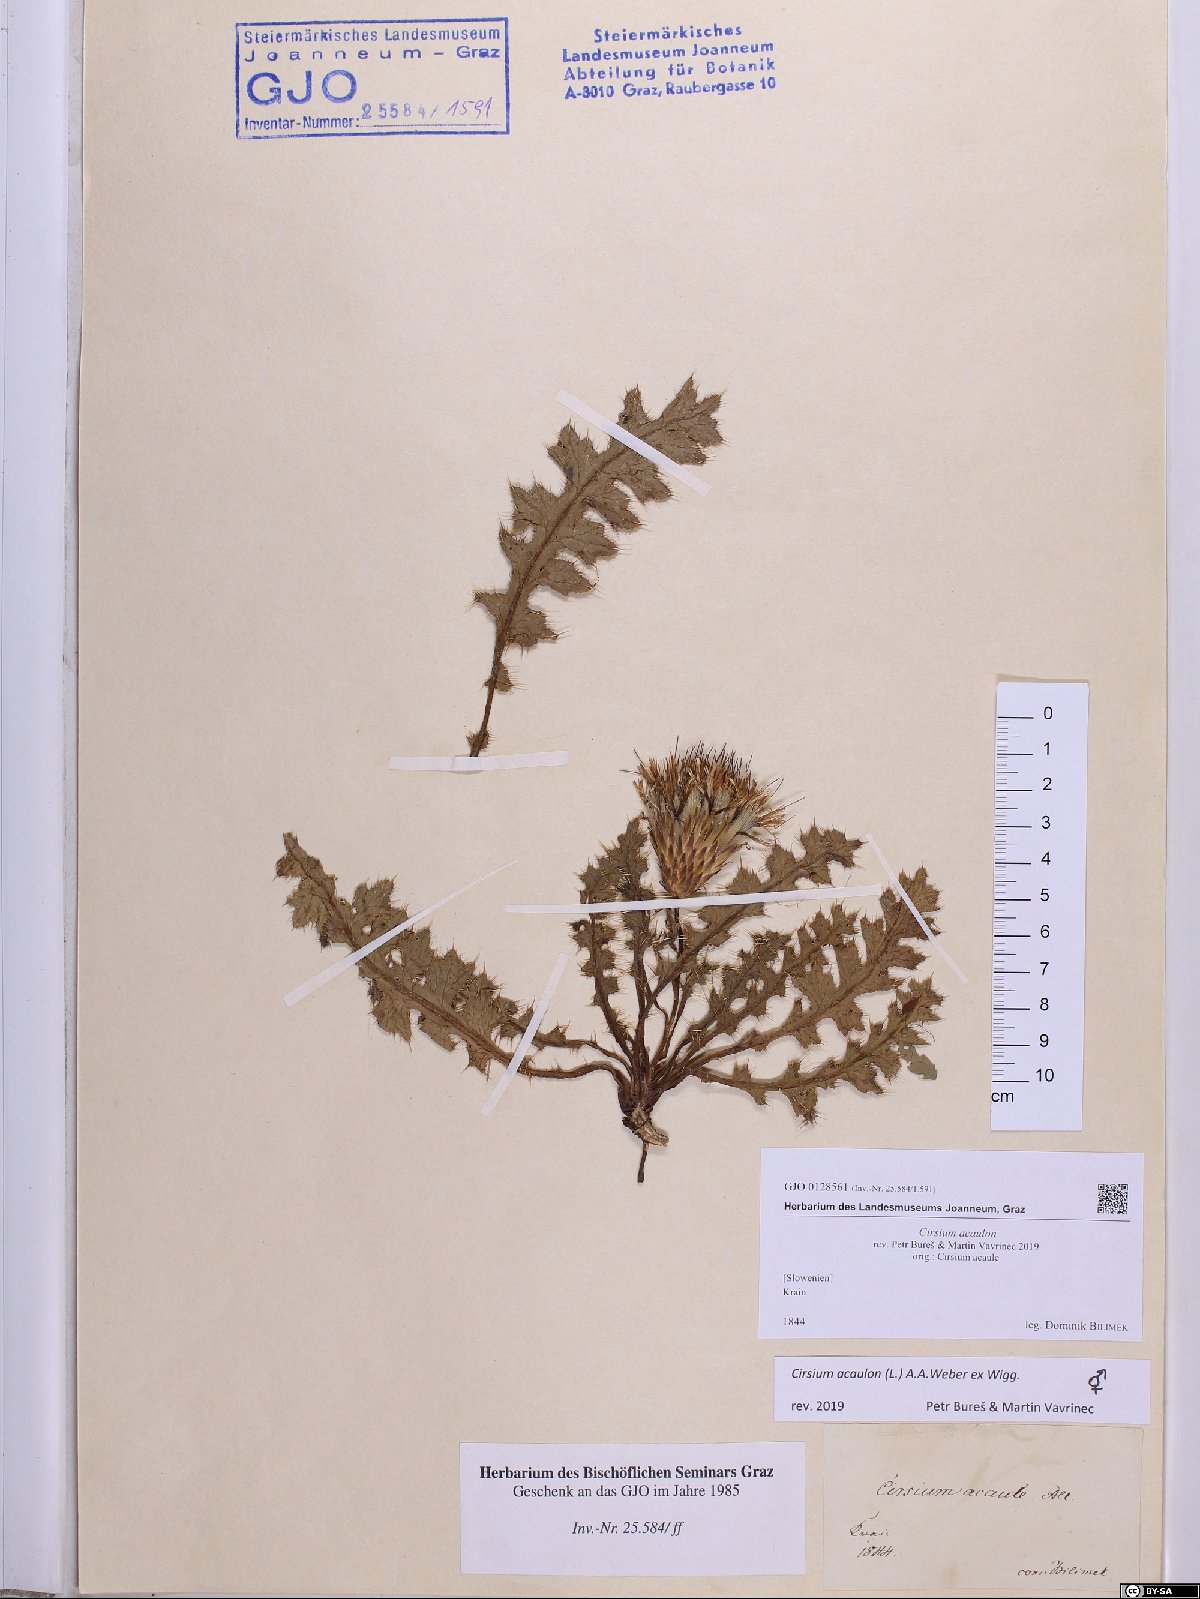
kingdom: Plantae
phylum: Tracheophyta
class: Magnoliopsida
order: Asterales
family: Asteraceae
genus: Cirsium
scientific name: Cirsium acaulon
